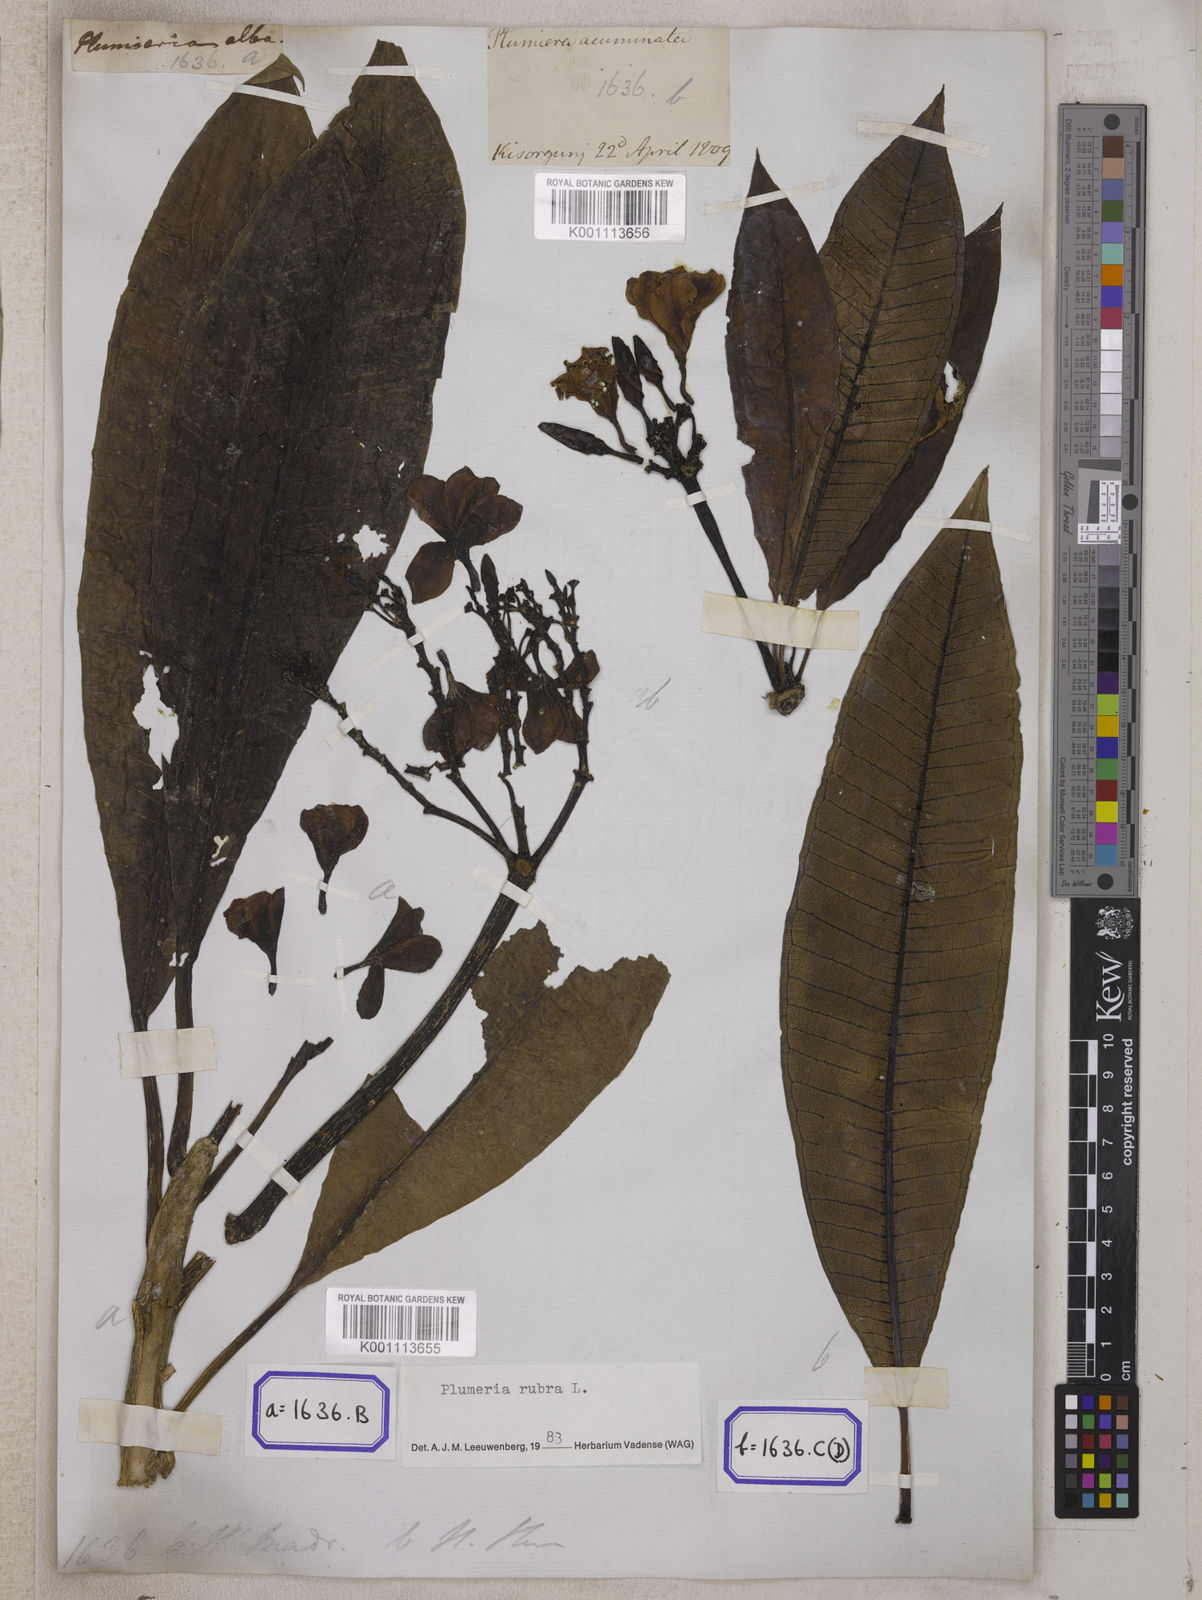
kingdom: Plantae
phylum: Tracheophyta
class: Magnoliopsida
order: Gentianales
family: Apocynaceae
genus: Plumeria
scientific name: Plumeria rubra
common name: Pagoda-tree
